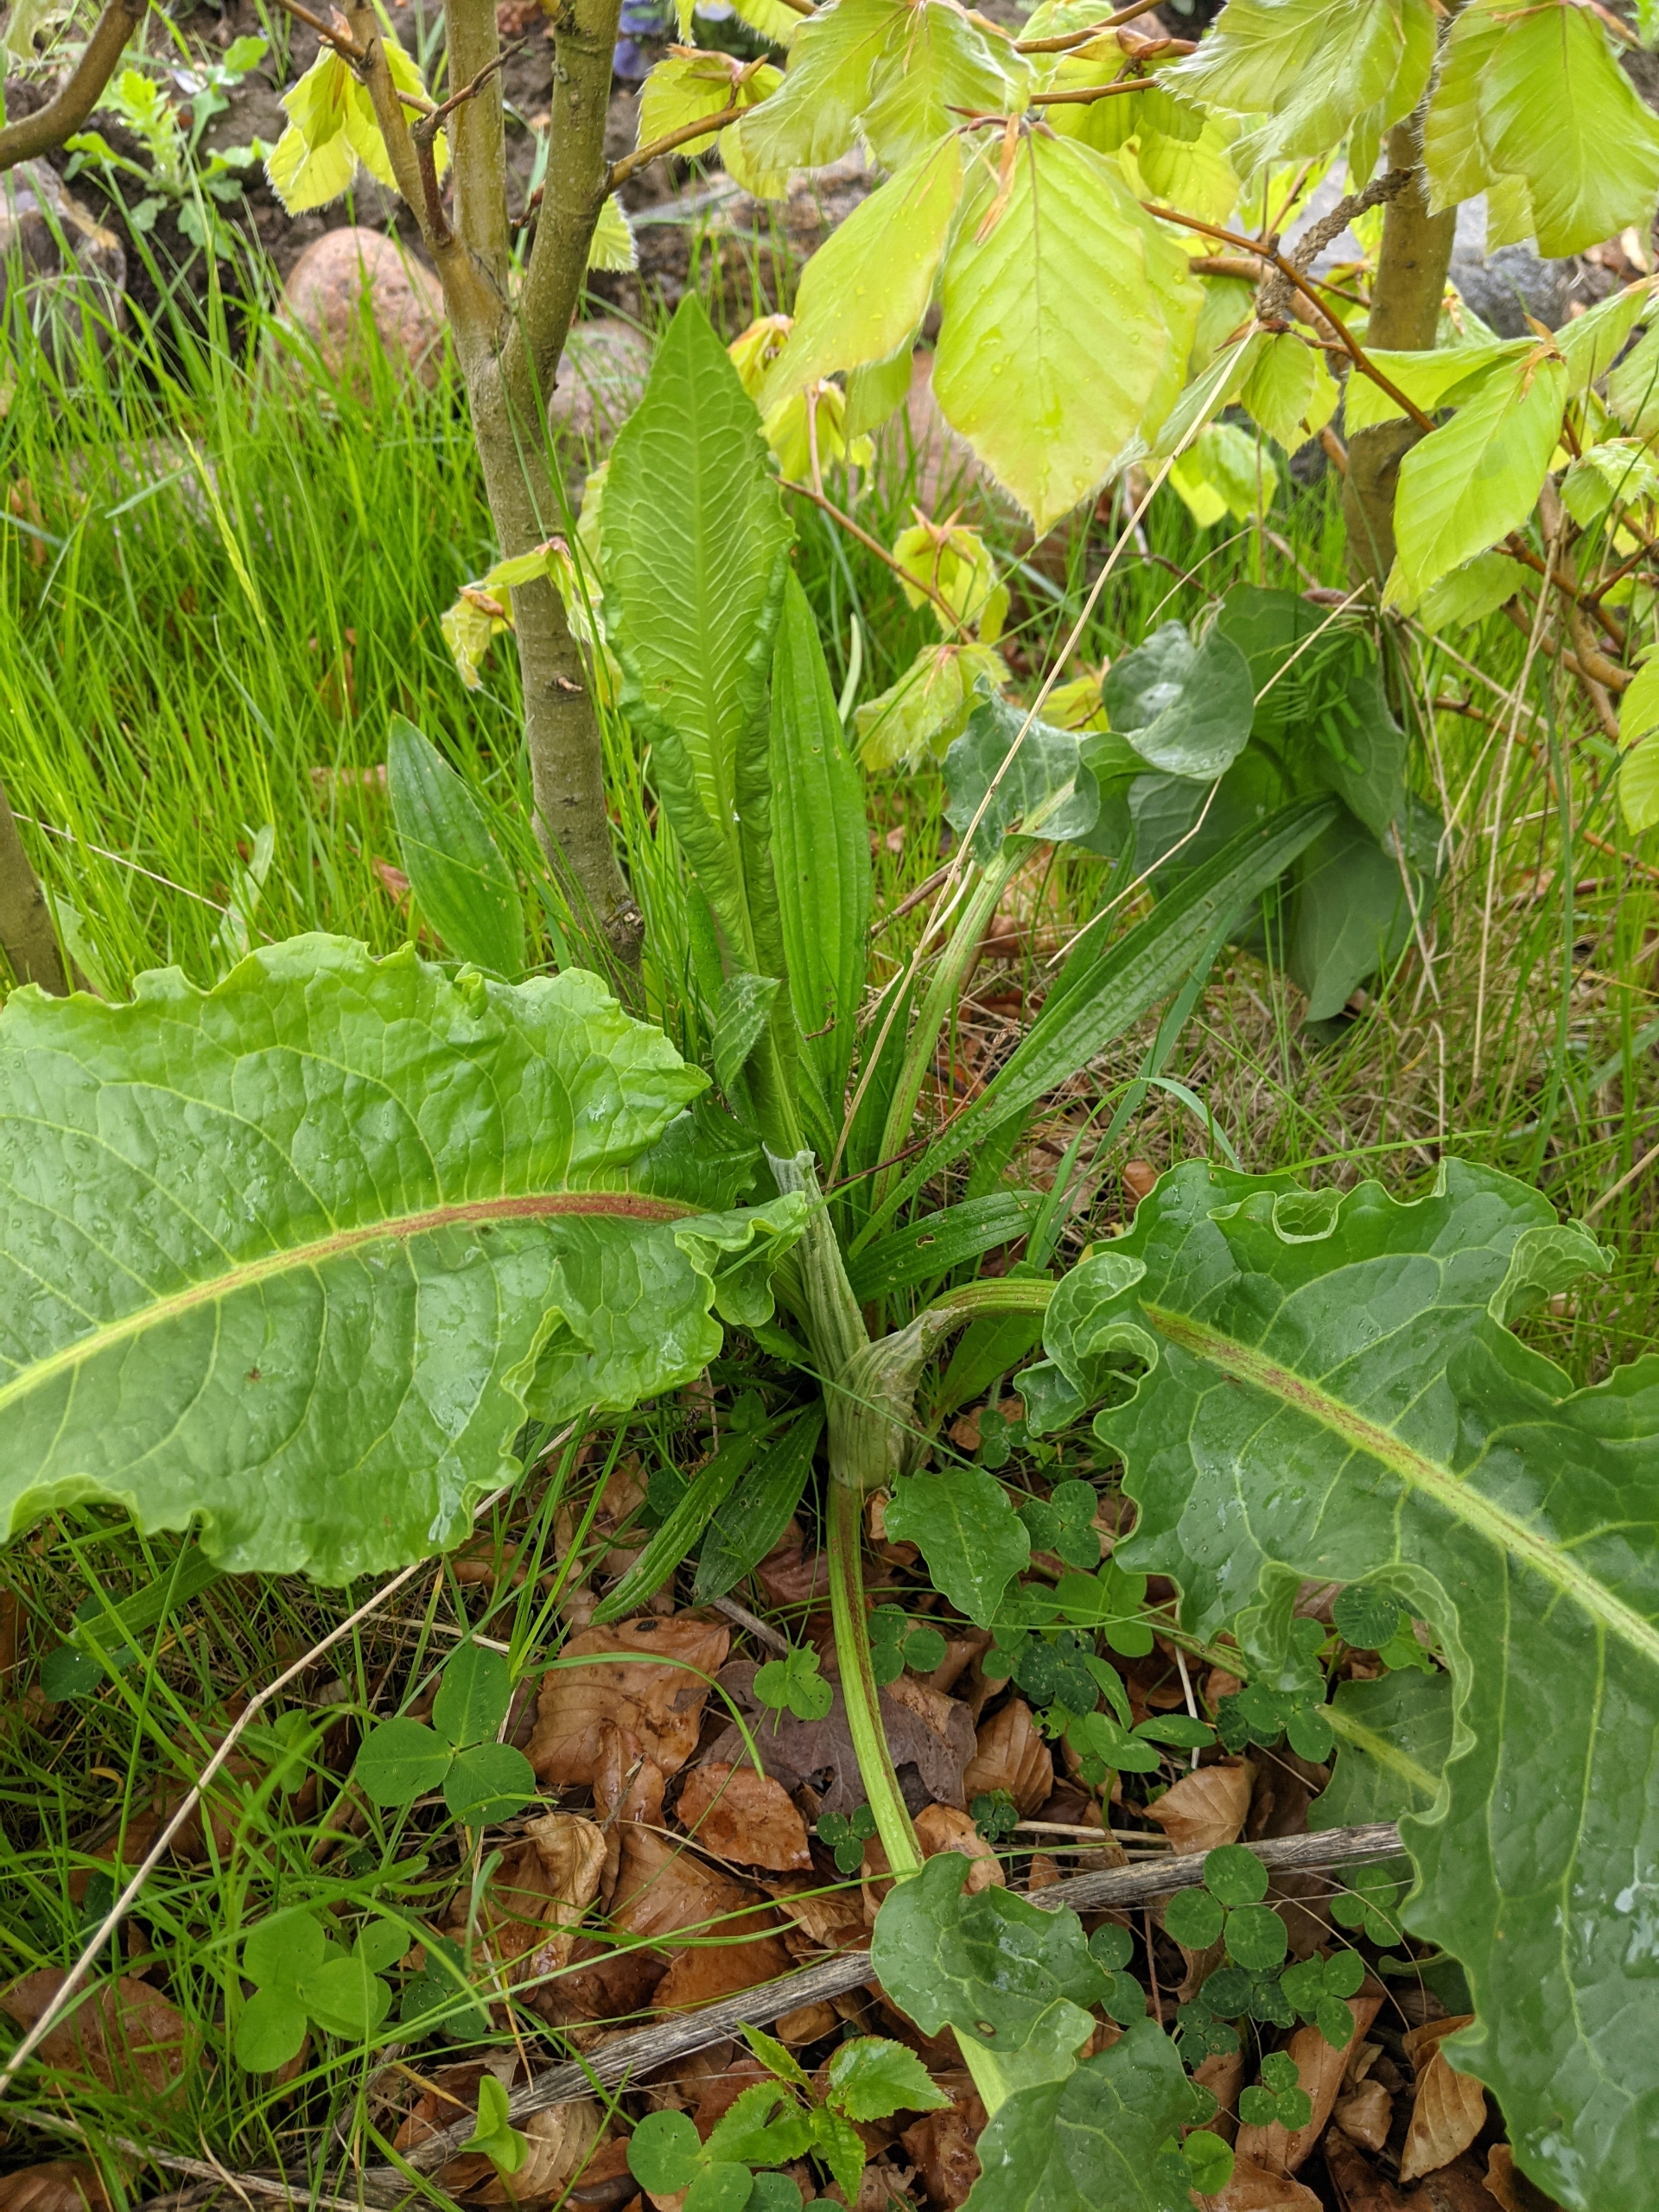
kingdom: Plantae
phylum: Tracheophyta
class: Magnoliopsida
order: Caryophyllales
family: Polygonaceae
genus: Rumex
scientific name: Rumex crispus
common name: Kruset skræppe
